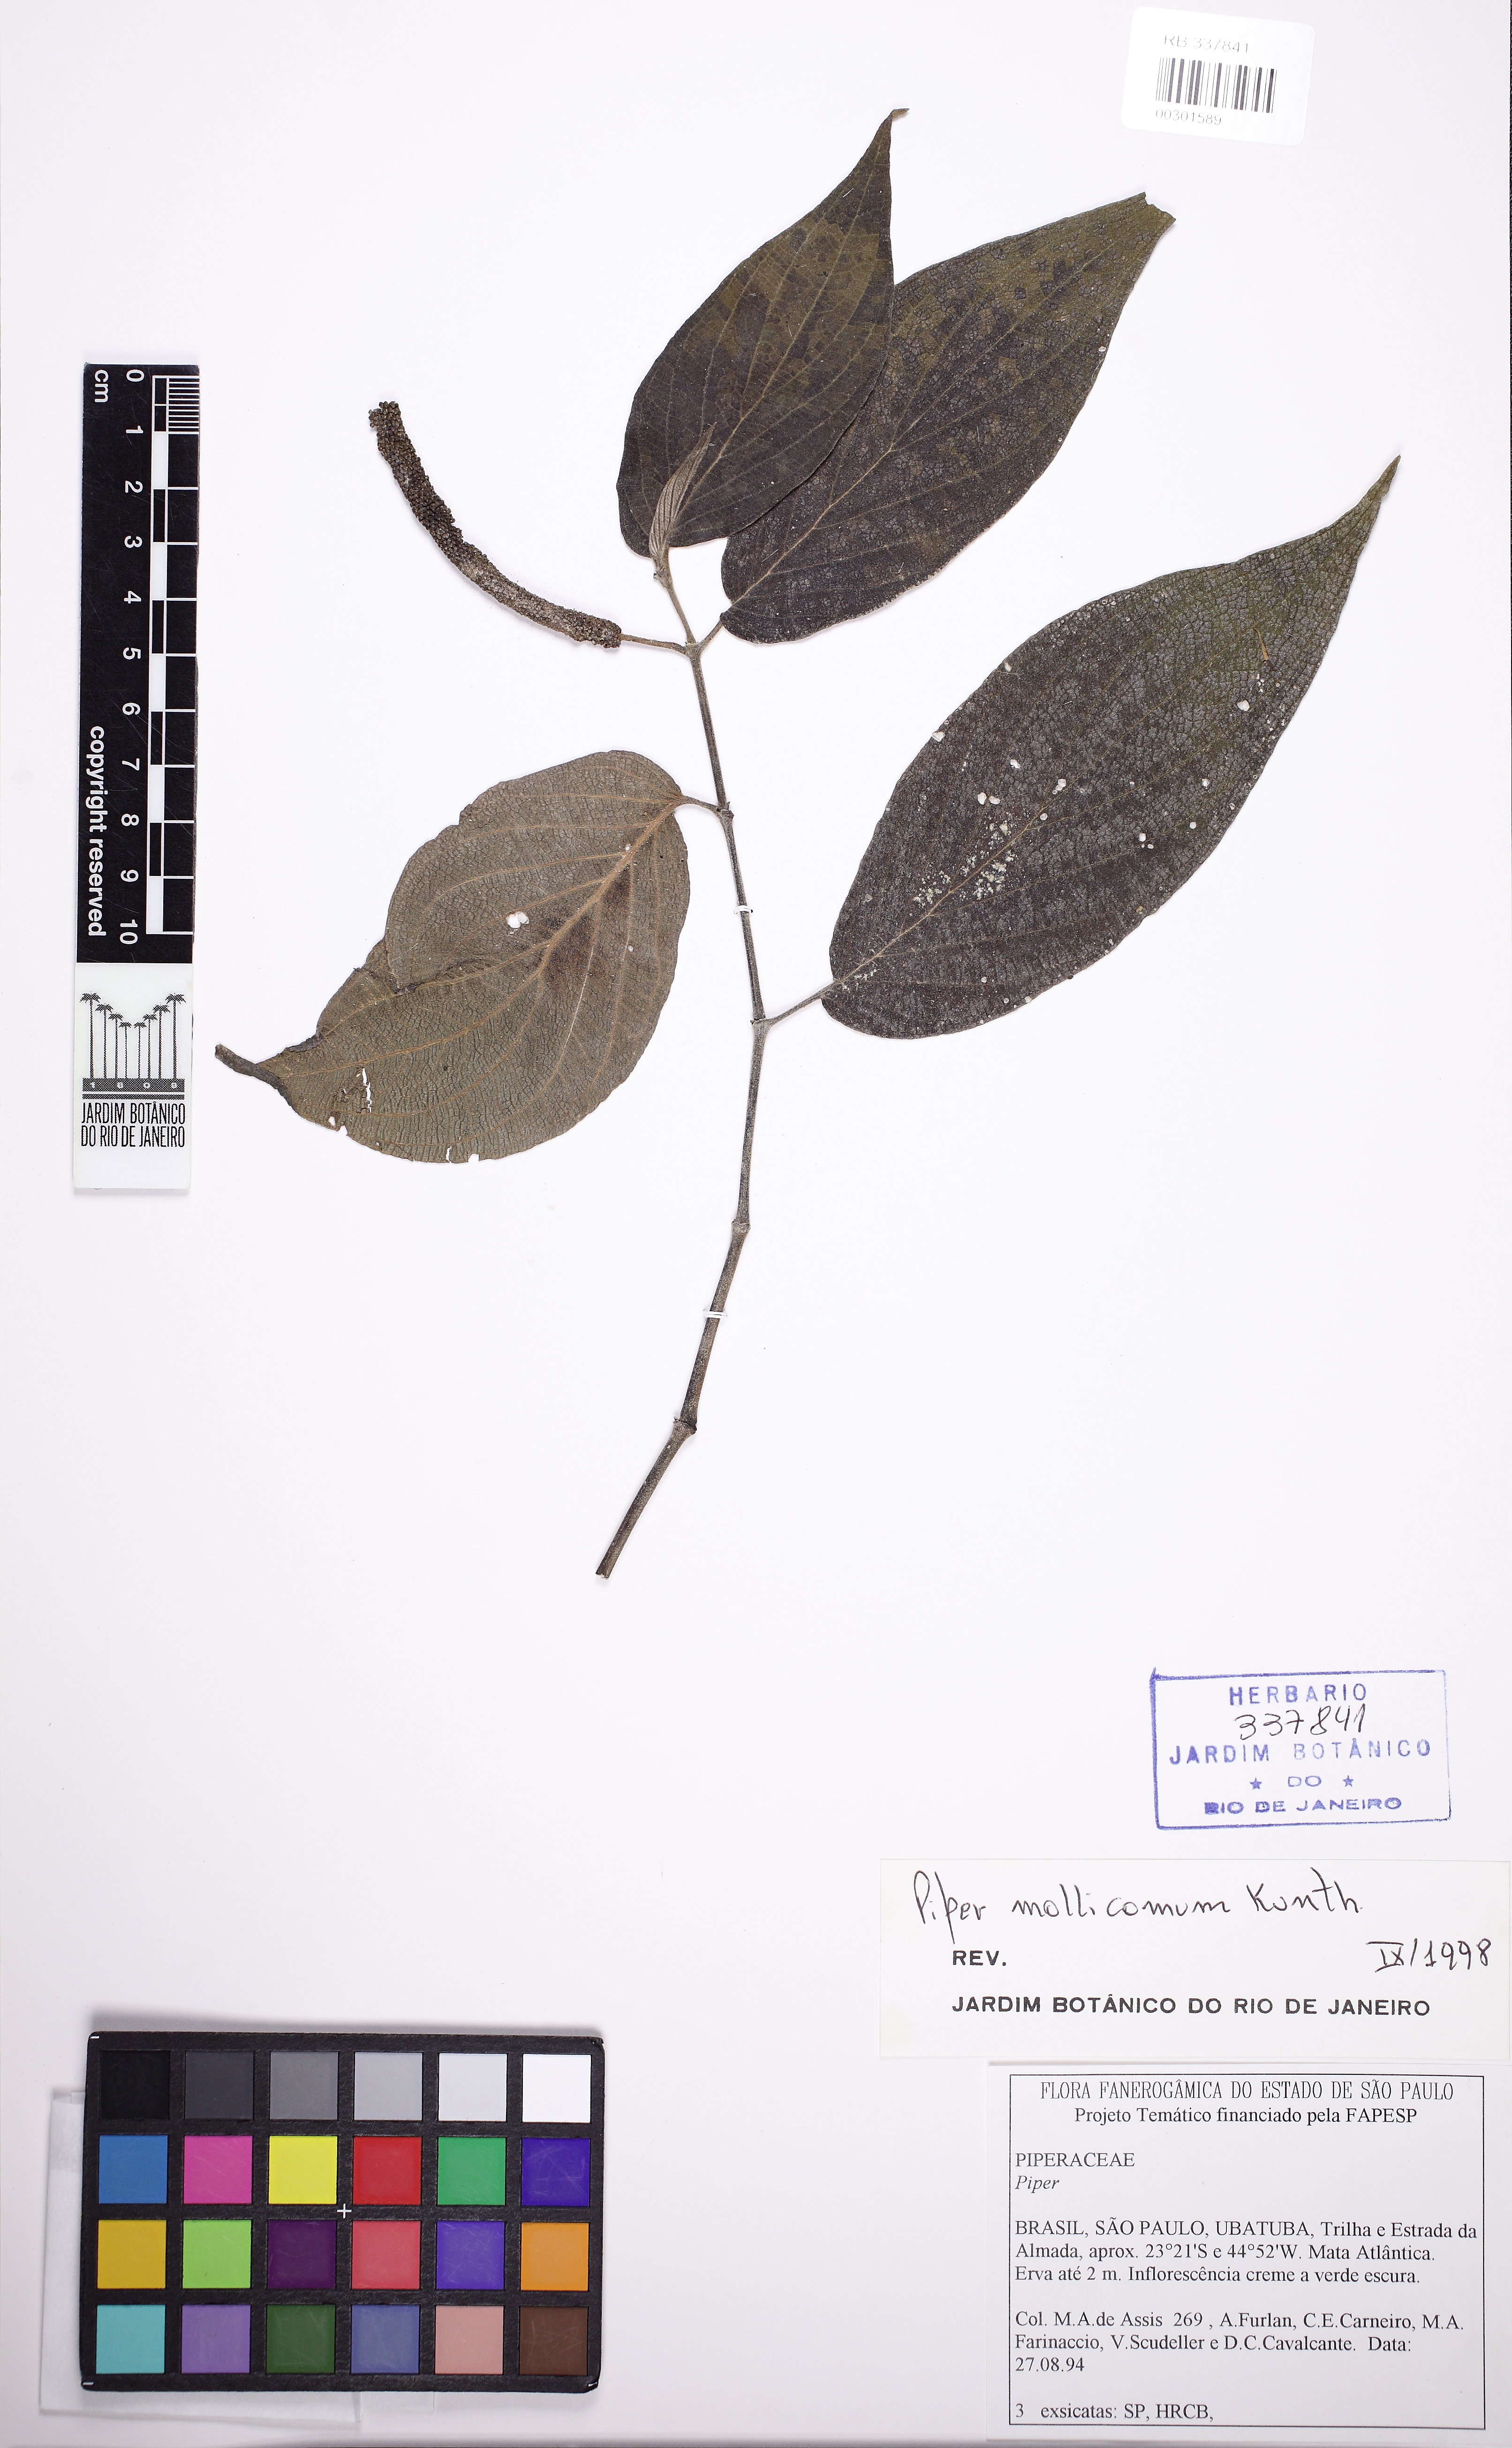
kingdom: Plantae
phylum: Tracheophyta
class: Magnoliopsida
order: Piperales
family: Piperaceae
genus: Piper
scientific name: Piper mollicomum
